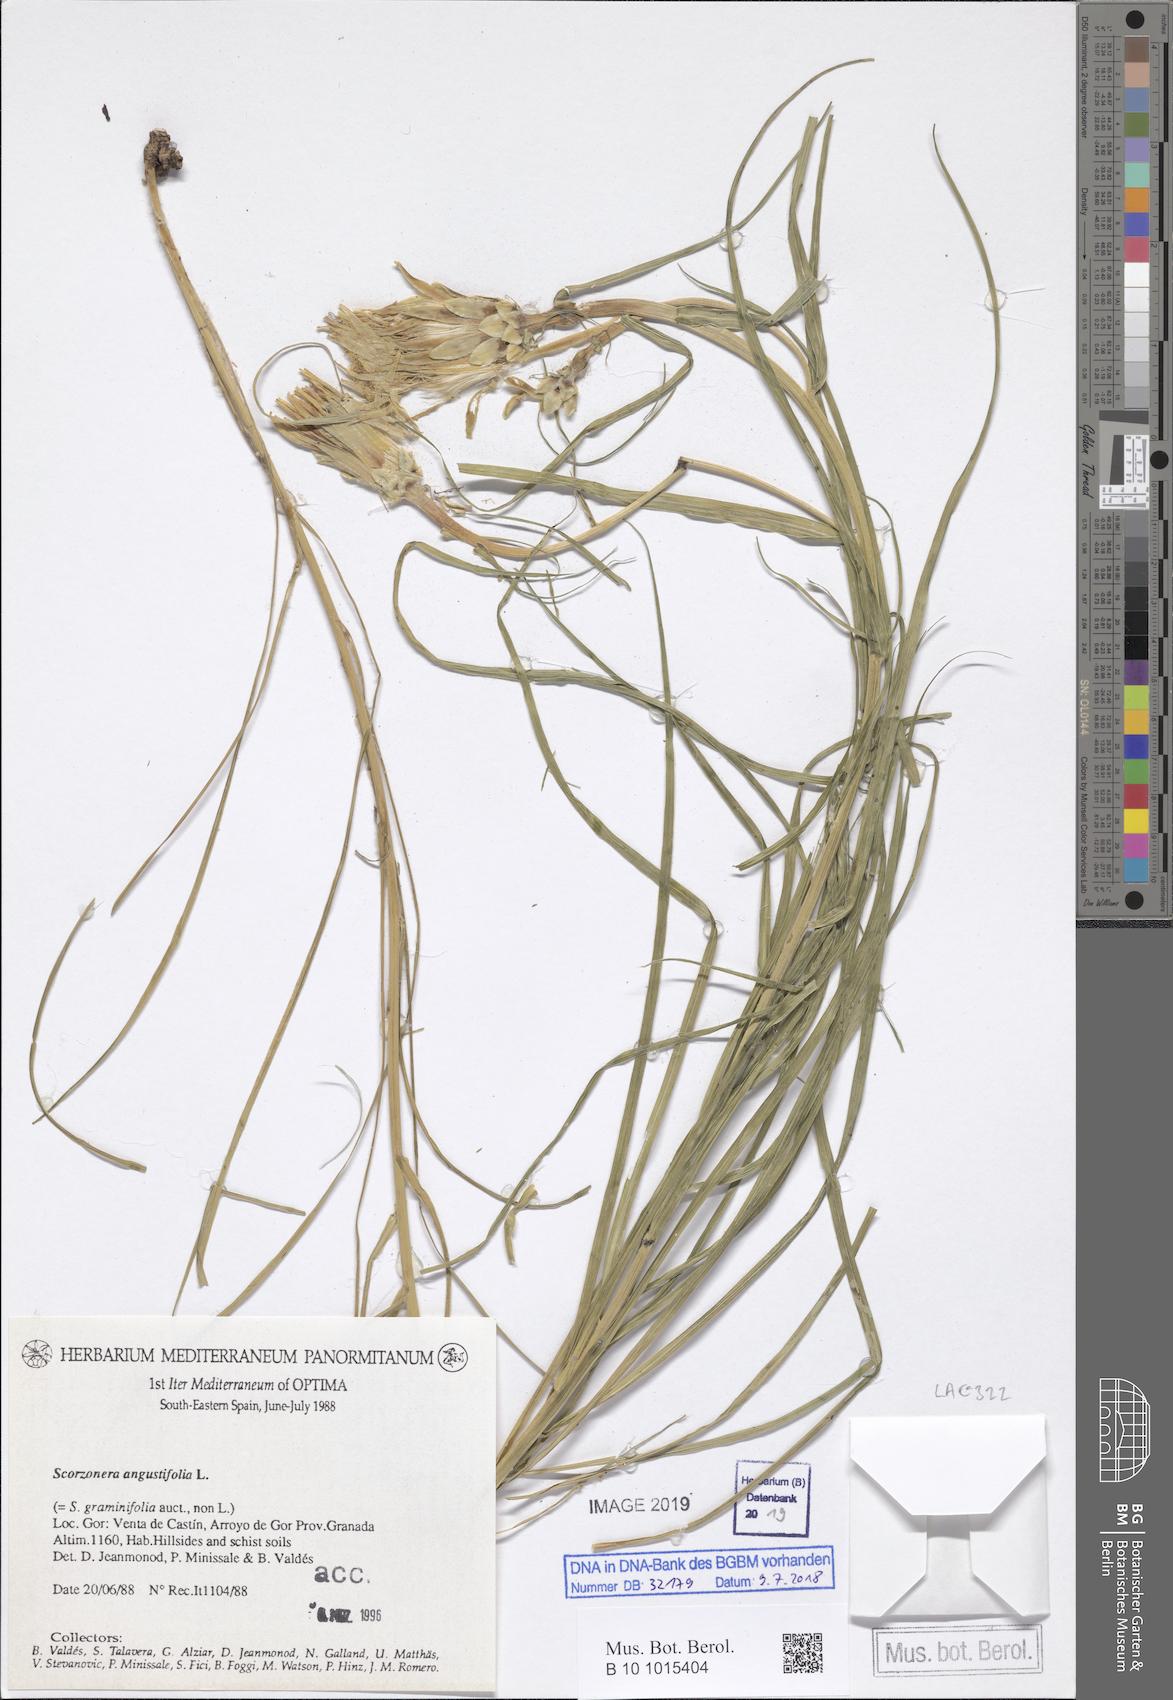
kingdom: Plantae
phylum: Tracheophyta
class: Magnoliopsida
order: Asterales
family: Asteraceae
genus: Scorzonera
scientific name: Scorzonera angustifolia
